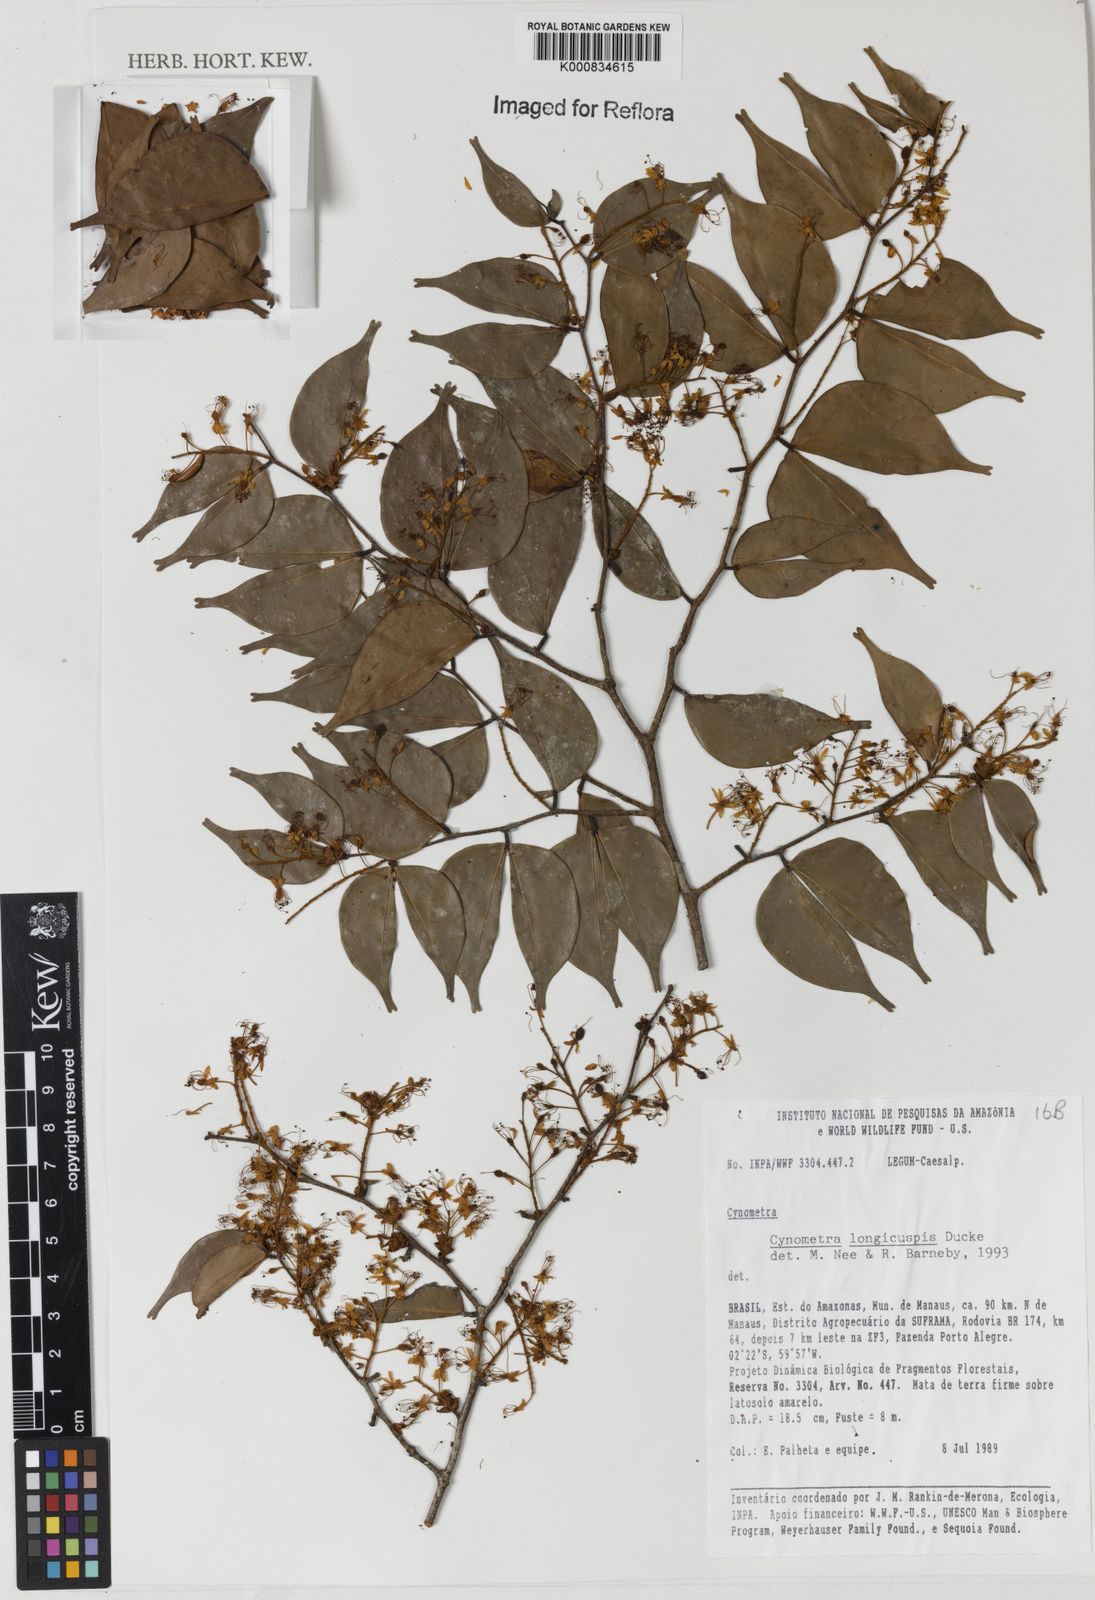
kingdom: Plantae
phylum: Tracheophyta
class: Magnoliopsida
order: Fabales
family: Fabaceae
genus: Cynometra
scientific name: Cynometra longicuspis
